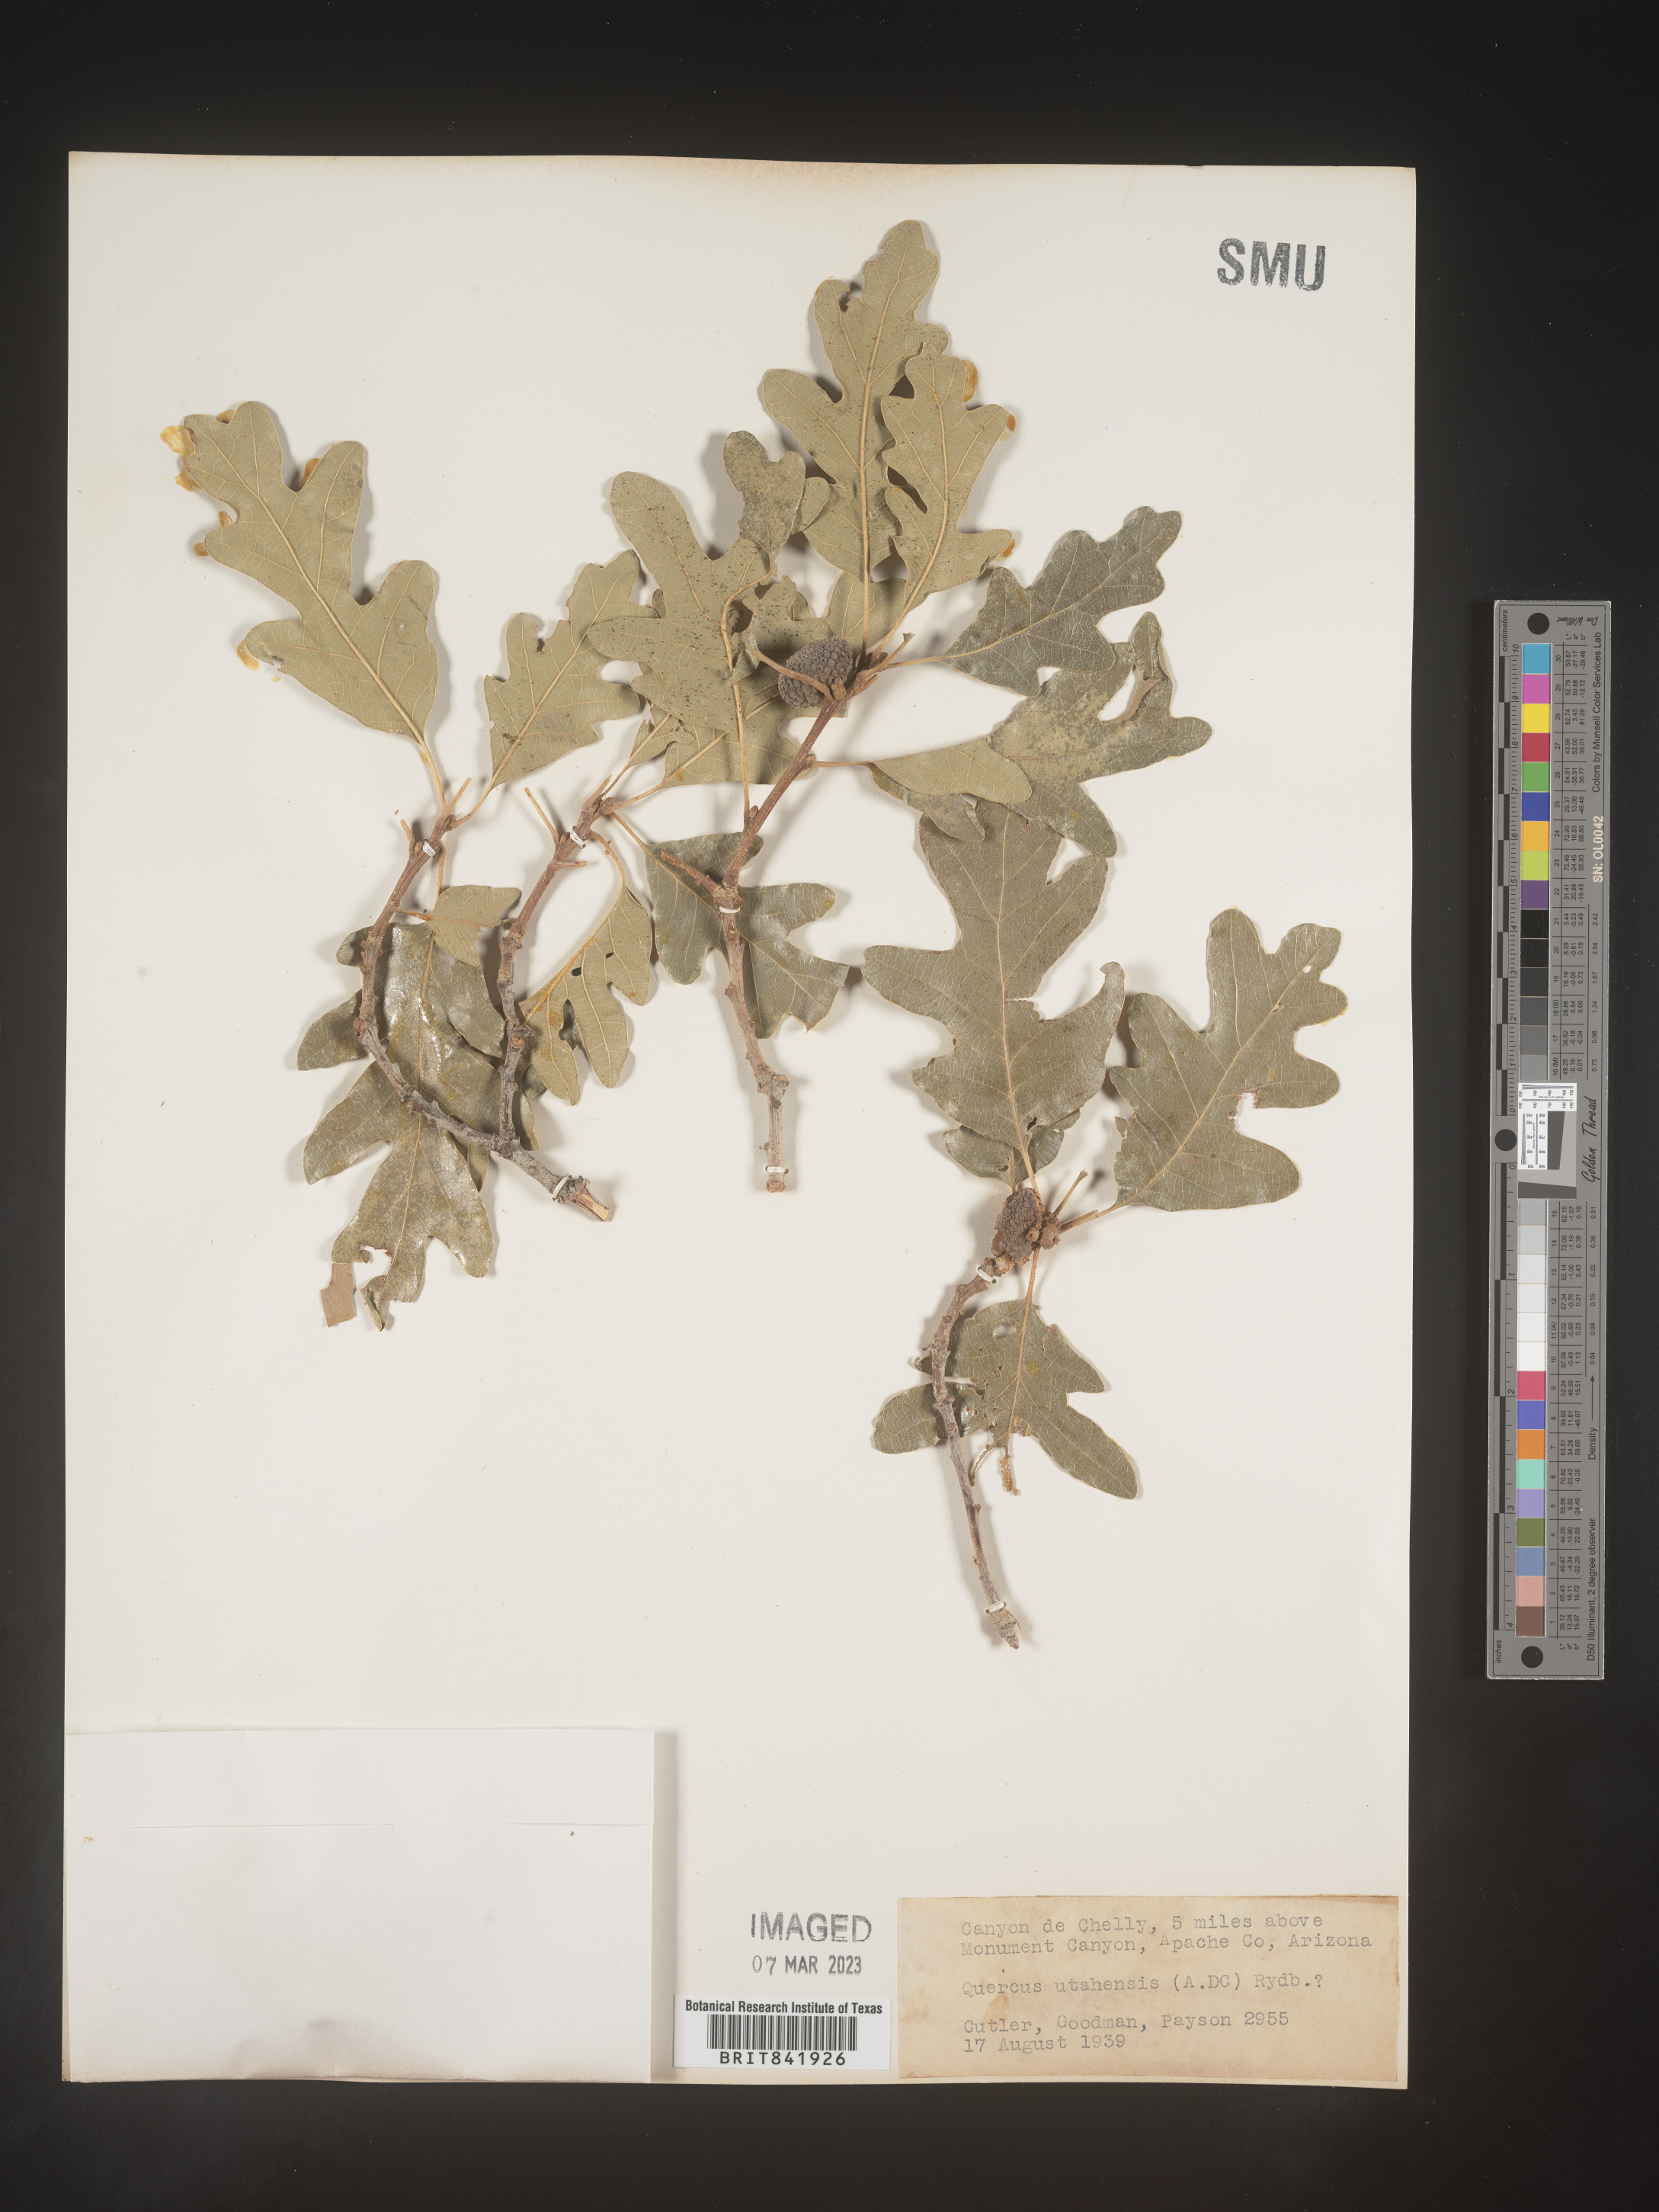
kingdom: Plantae
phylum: Tracheophyta
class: Magnoliopsida
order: Fagales
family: Fagaceae
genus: Quercus
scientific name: Quercus gambelii
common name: Gambel oak
